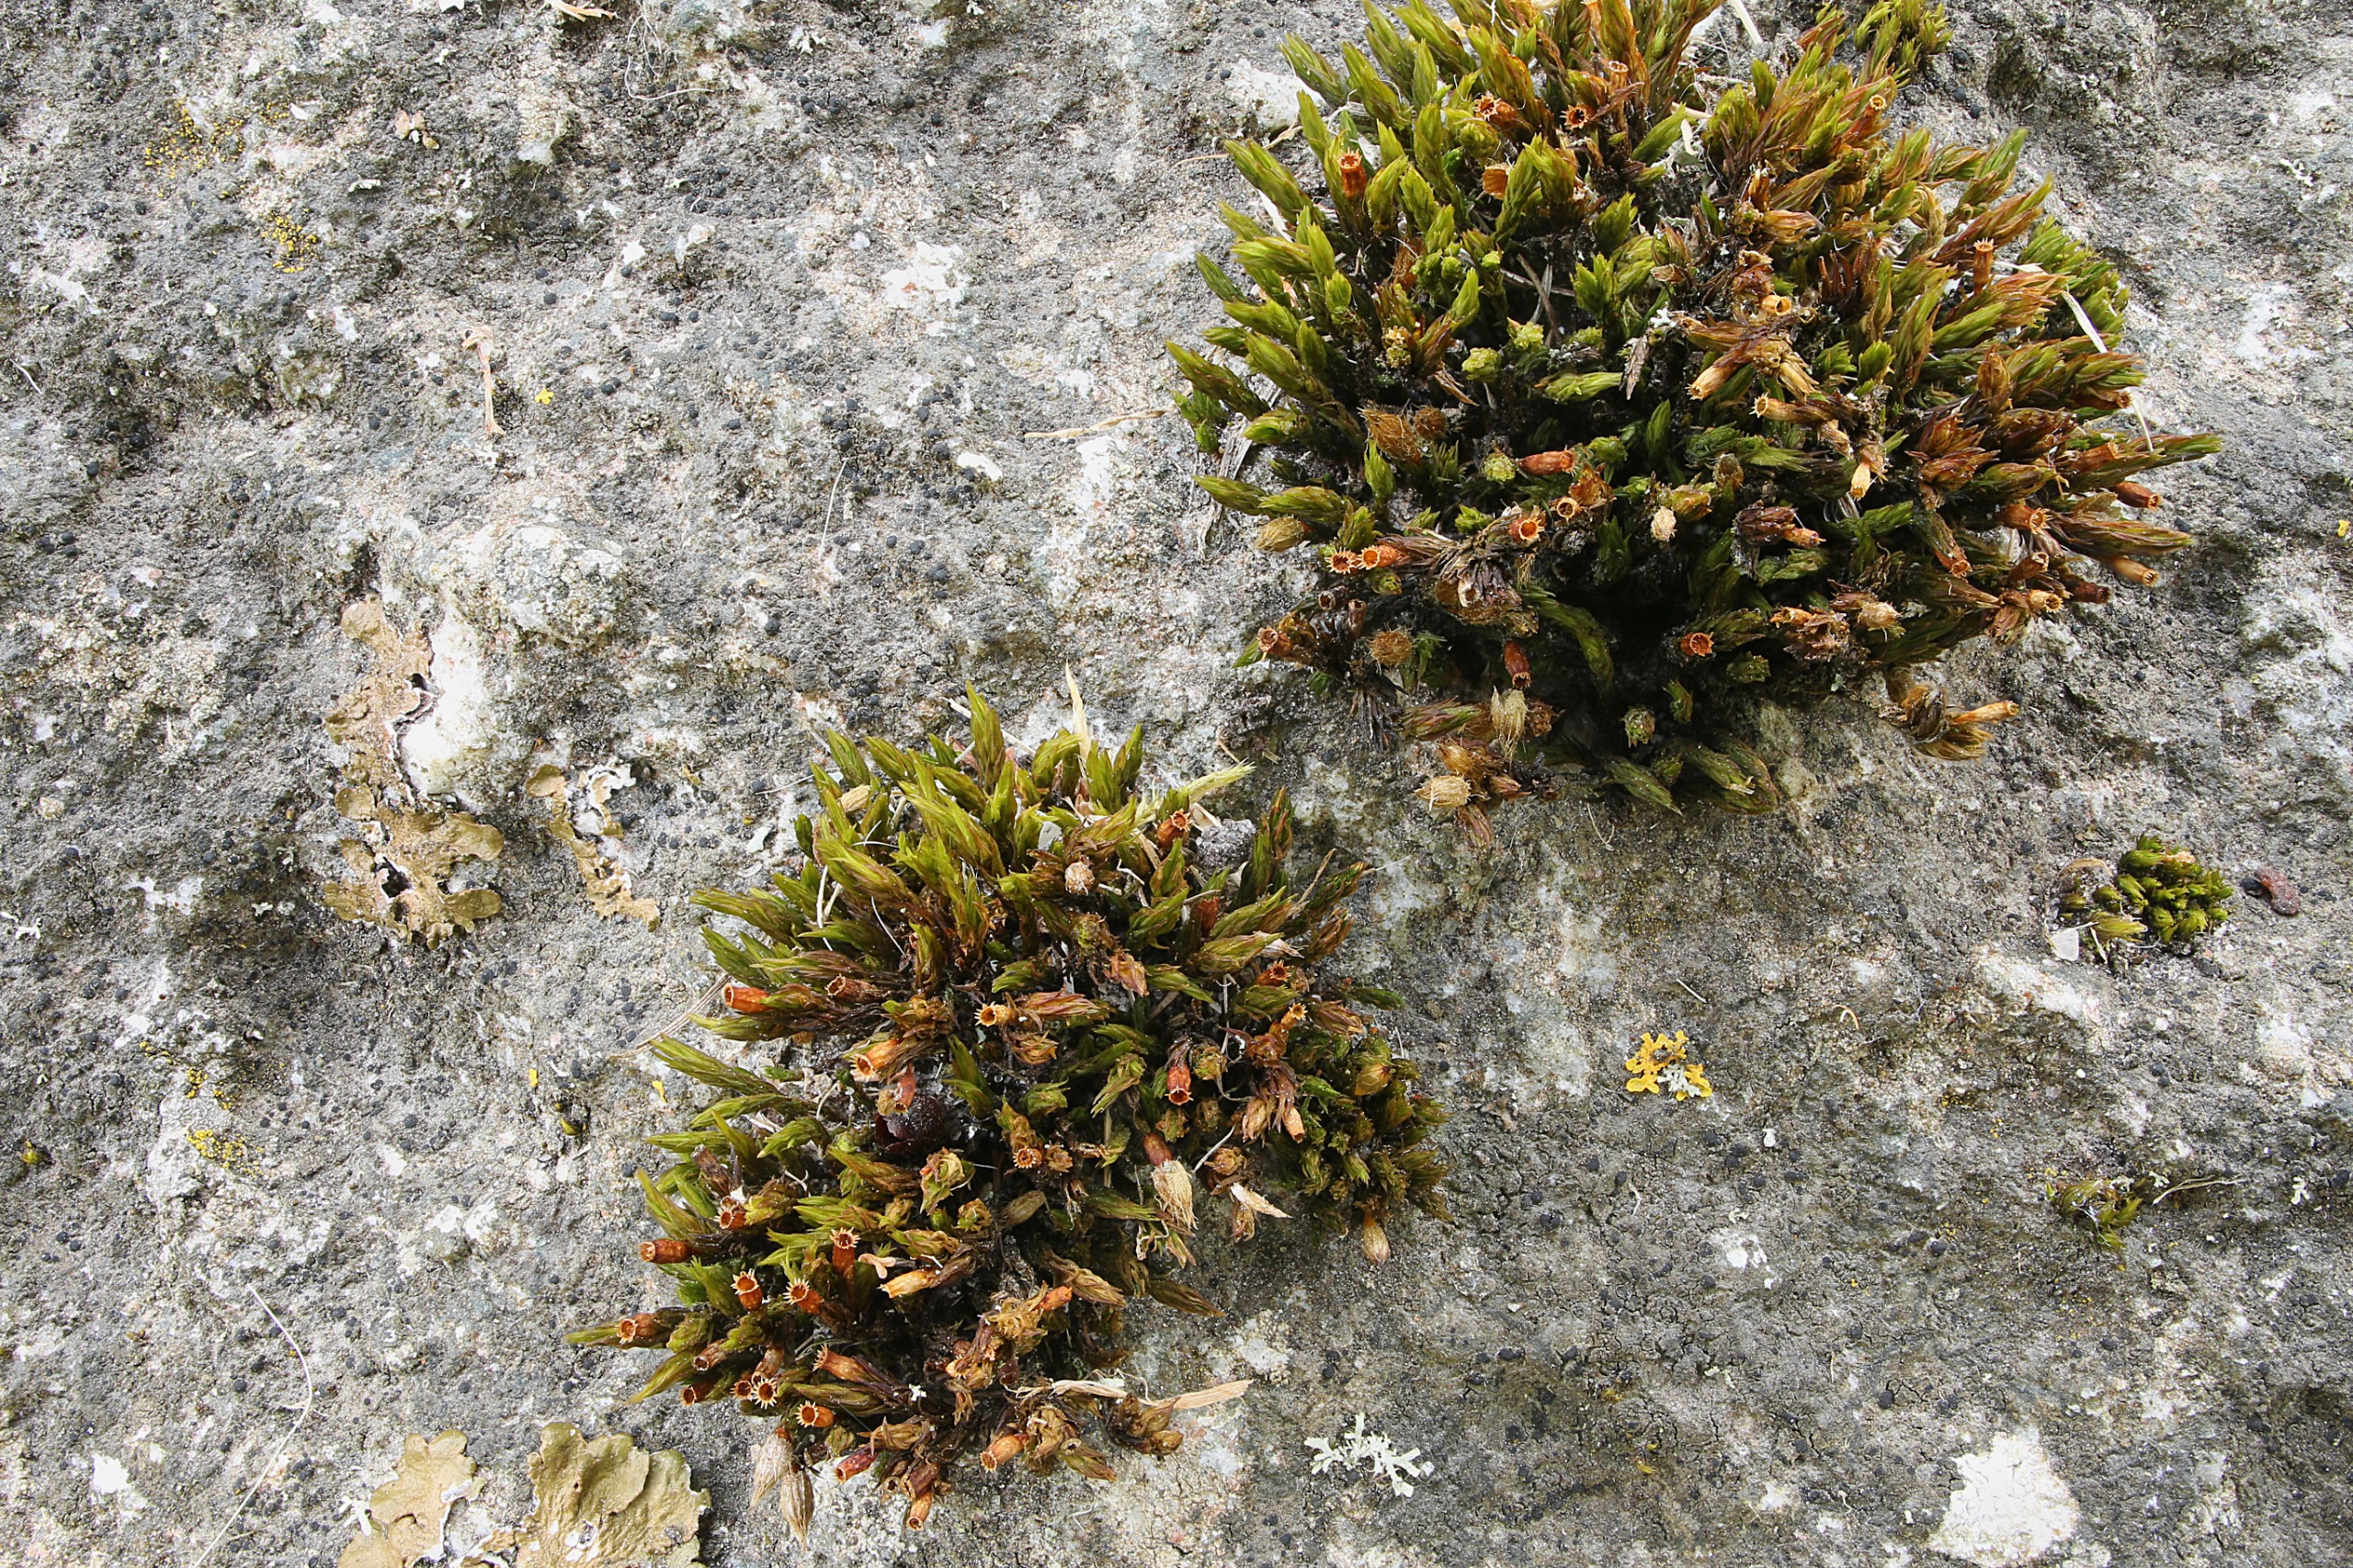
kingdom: Plantae
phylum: Bryophyta
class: Bryopsida
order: Orthotrichales
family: Orthotrichaceae
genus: Lewinskya
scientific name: Lewinskya rupestris
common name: Sten-furehætte
